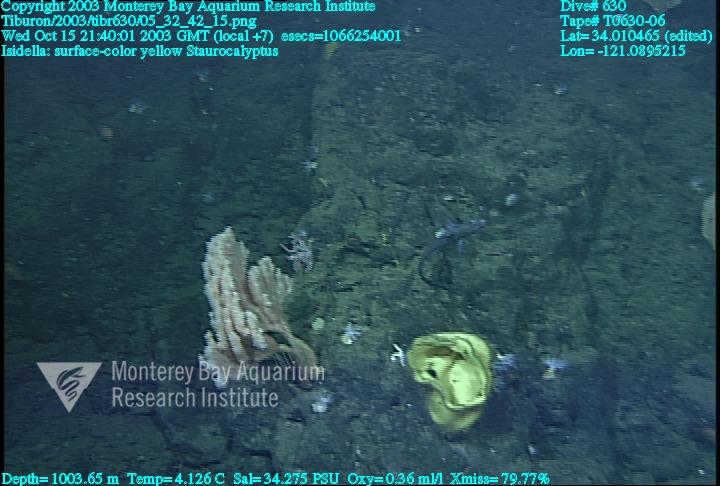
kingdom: Animalia
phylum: Porifera
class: Hexactinellida
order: Lyssacinosida
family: Rossellidae
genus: Staurocalyptus
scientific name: Staurocalyptus
